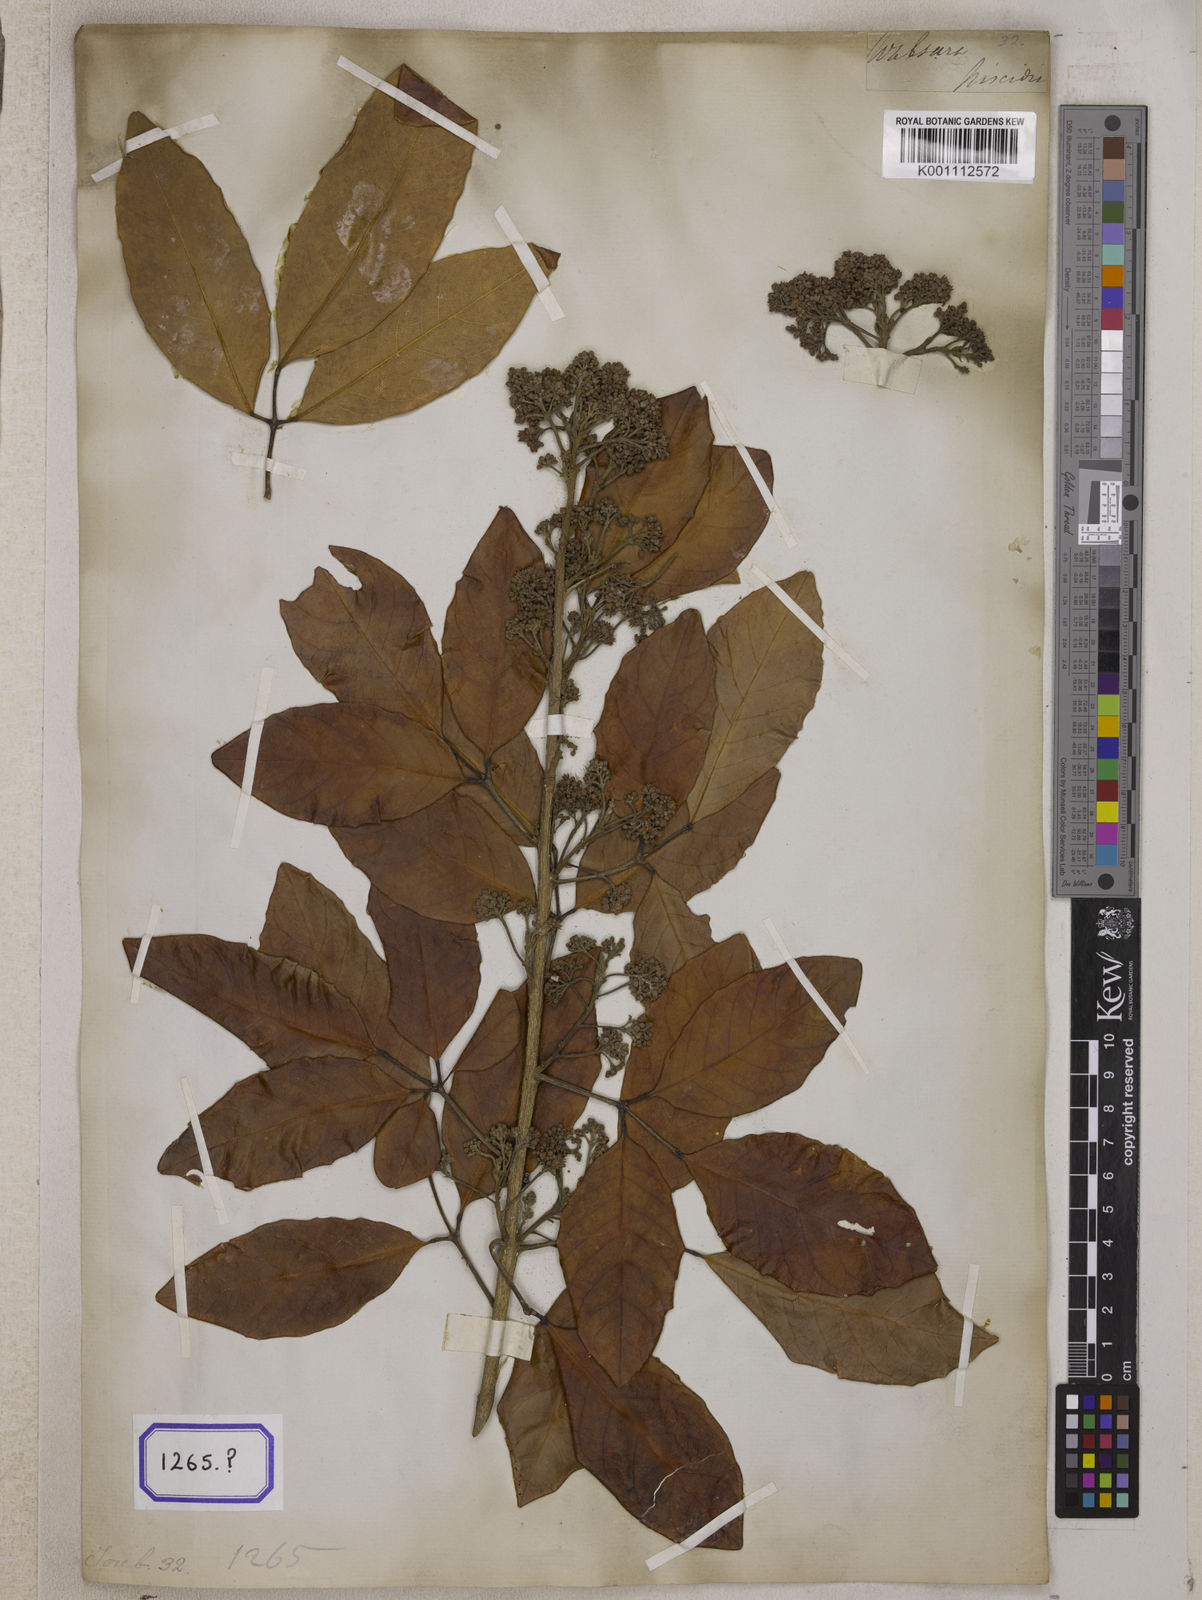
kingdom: Plantae
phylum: Tracheophyta
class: Magnoliopsida
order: Sapindales
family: Meliaceae
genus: Walsura
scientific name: Walsura trifoliolata
